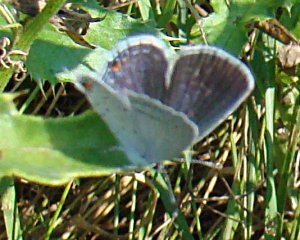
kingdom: Animalia
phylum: Arthropoda
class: Insecta
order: Lepidoptera
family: Lycaenidae
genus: Elkalyce
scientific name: Elkalyce comyntas
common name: Eastern Tailed-Blue
